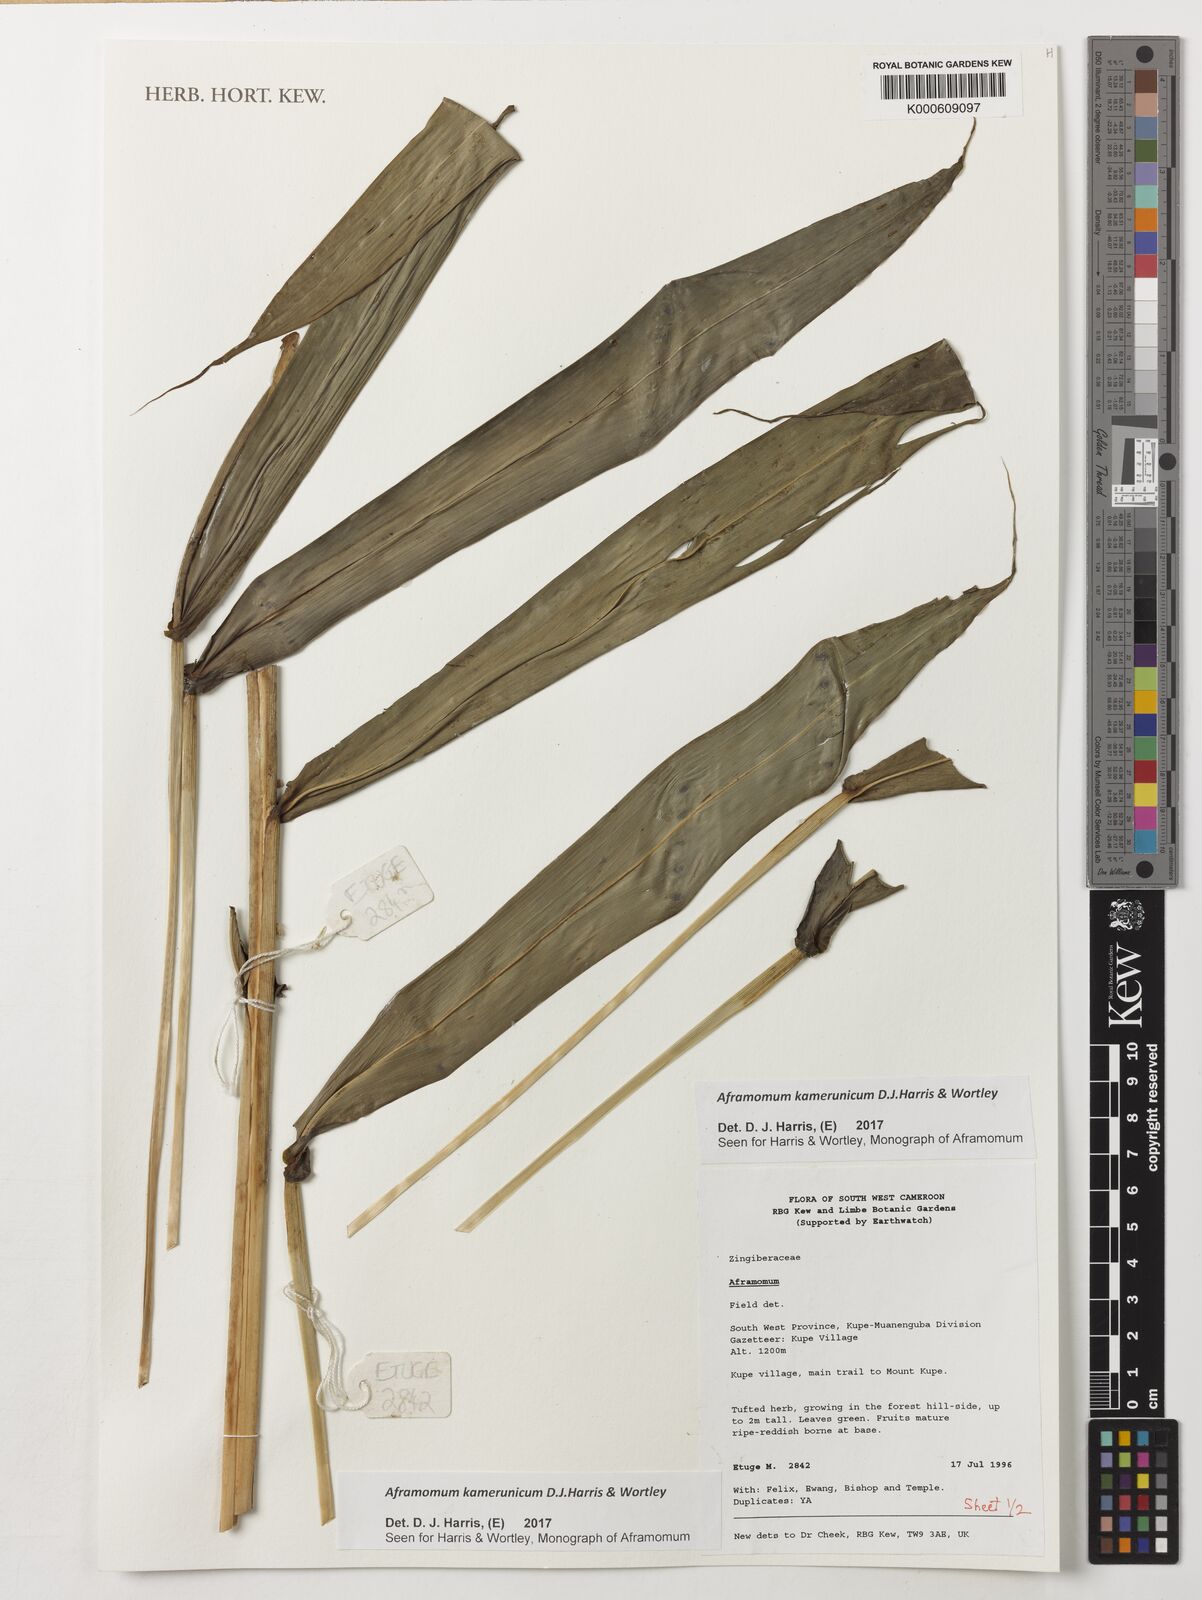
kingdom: Plantae
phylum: Tracheophyta
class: Liliopsida
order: Zingiberales
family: Zingiberaceae
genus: Aframomum
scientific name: Aframomum kamerunicum
